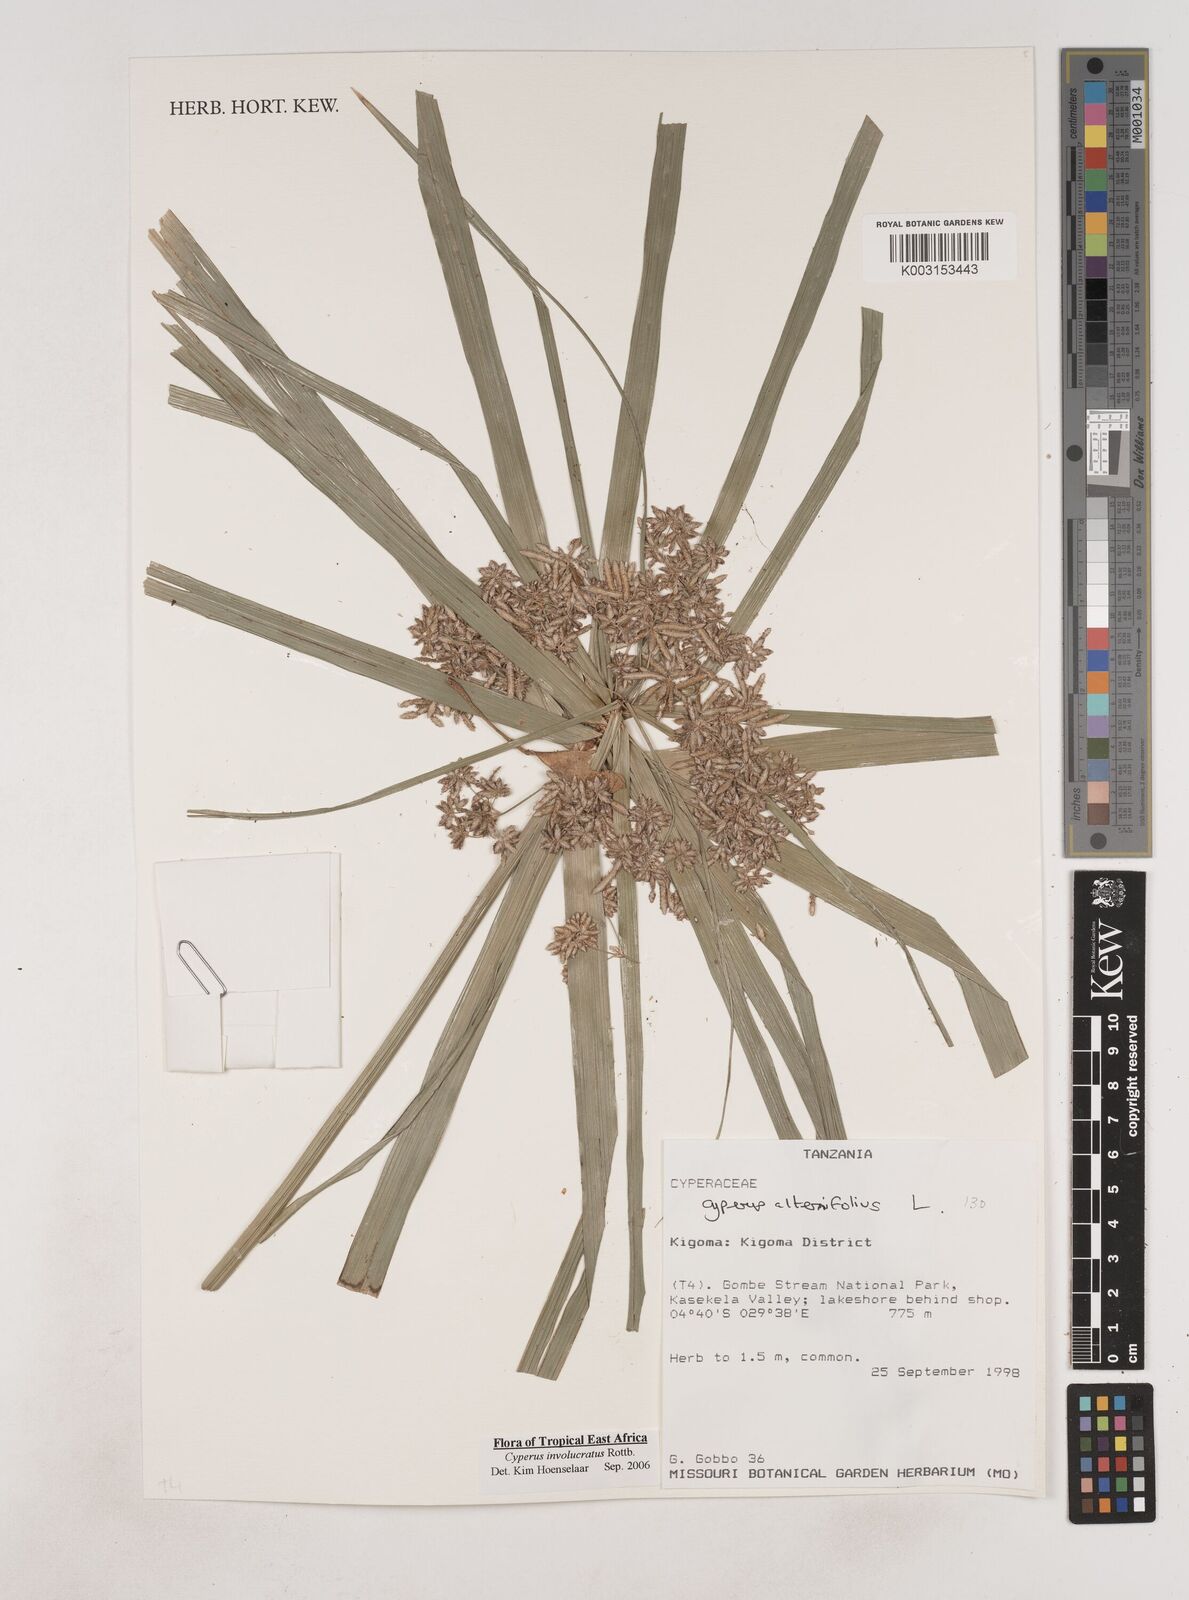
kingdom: Plantae
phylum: Tracheophyta
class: Liliopsida
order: Poales
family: Cyperaceae
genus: Cyperus
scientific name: Cyperus alternifolius
